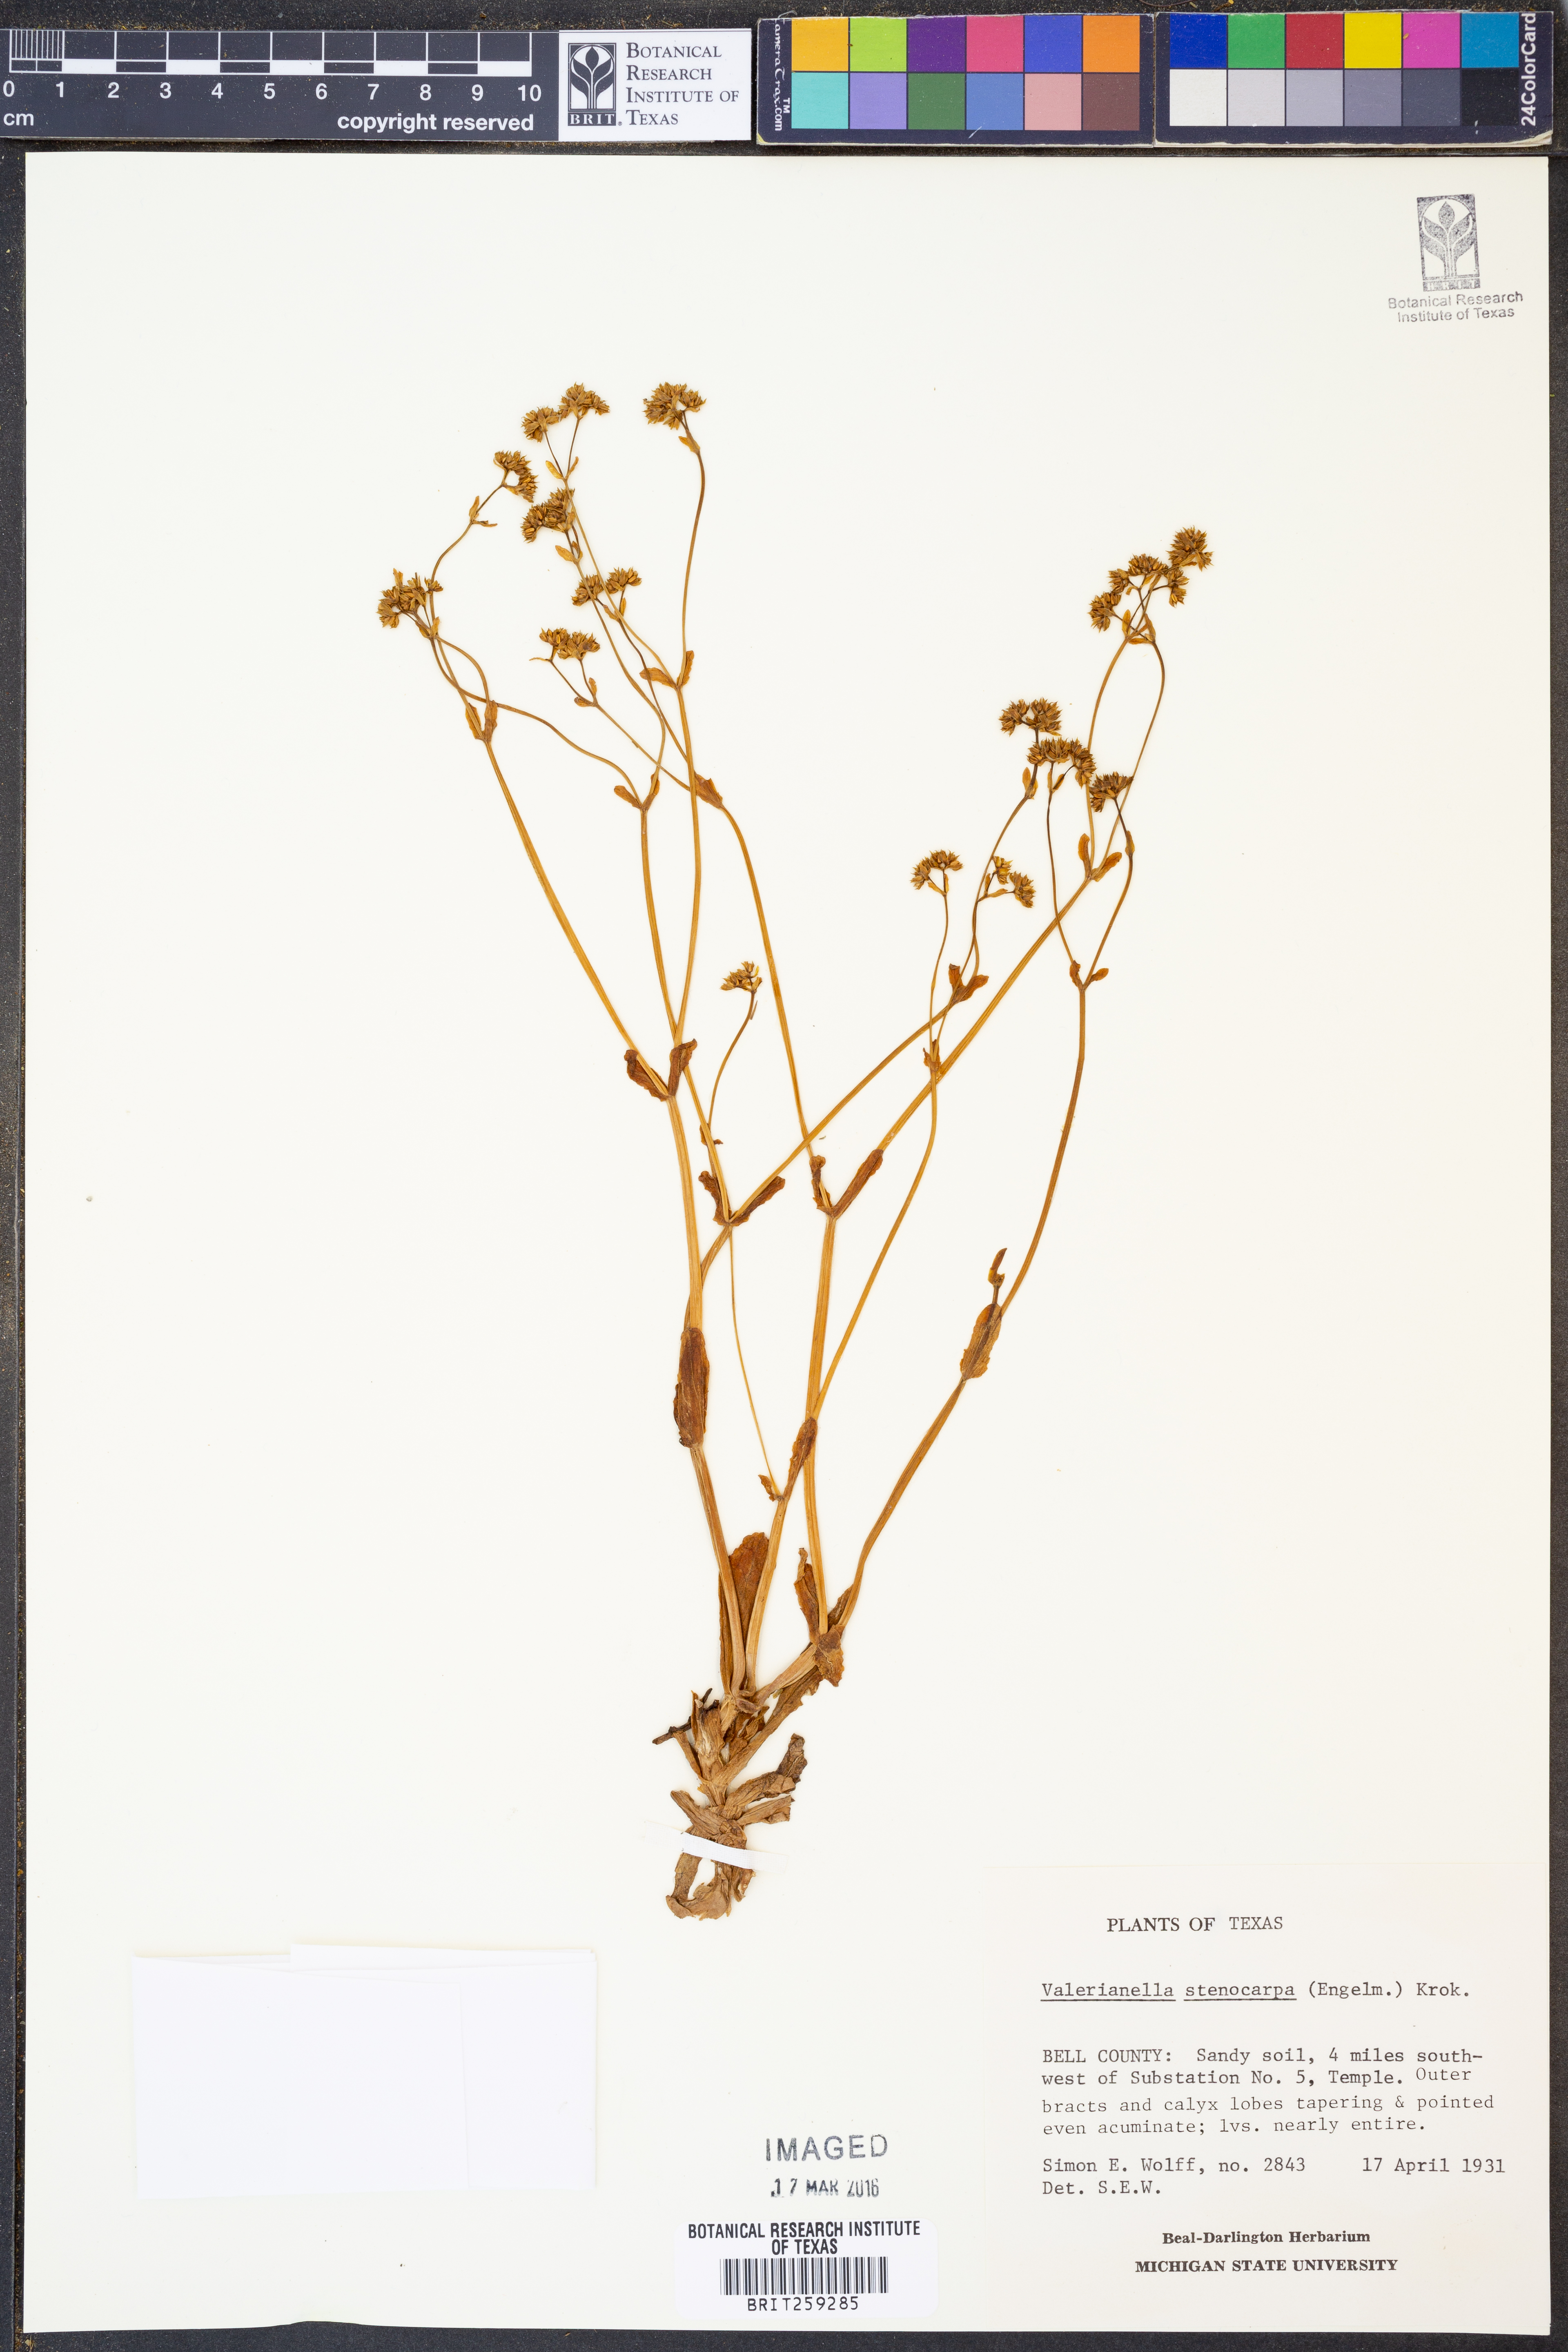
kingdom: Plantae
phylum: Tracheophyta
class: Magnoliopsida
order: Dipsacales
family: Caprifoliaceae
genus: Valerianella
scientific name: Valerianella stenocarpa
